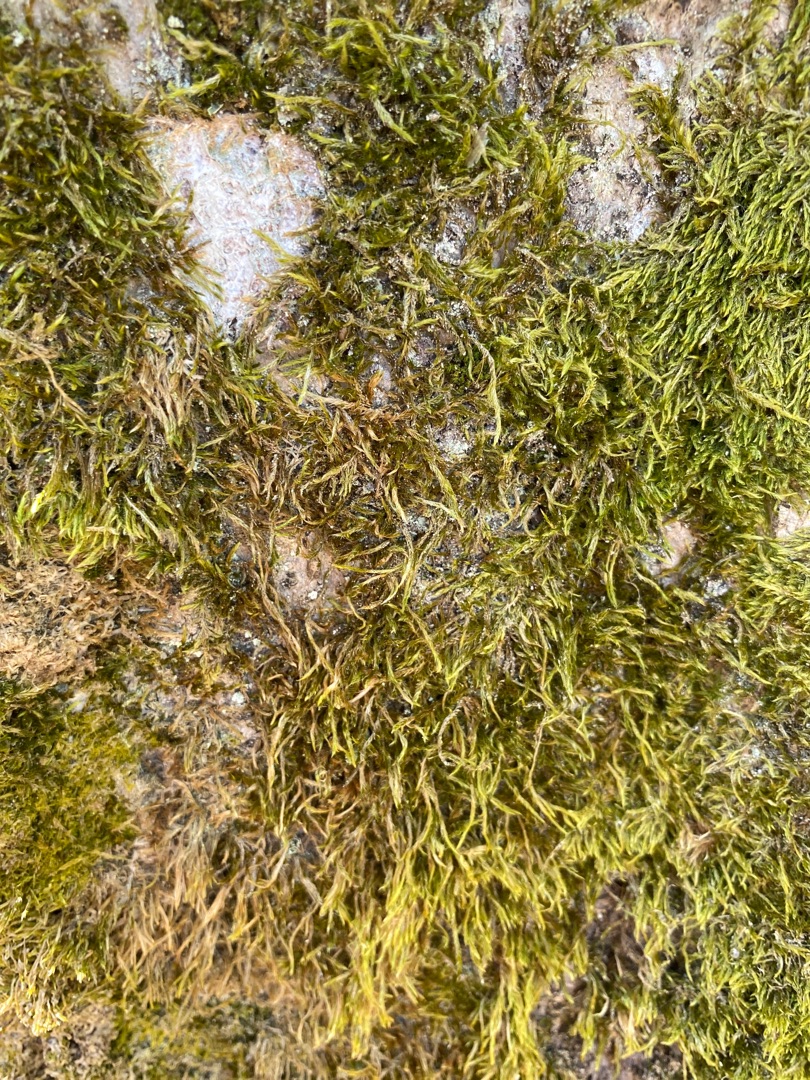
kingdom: Plantae
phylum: Bryophyta
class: Bryopsida
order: Hypnales
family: Hypnaceae
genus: Hypnum
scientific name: Hypnum cupressiforme
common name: Almindelig cypresmos
